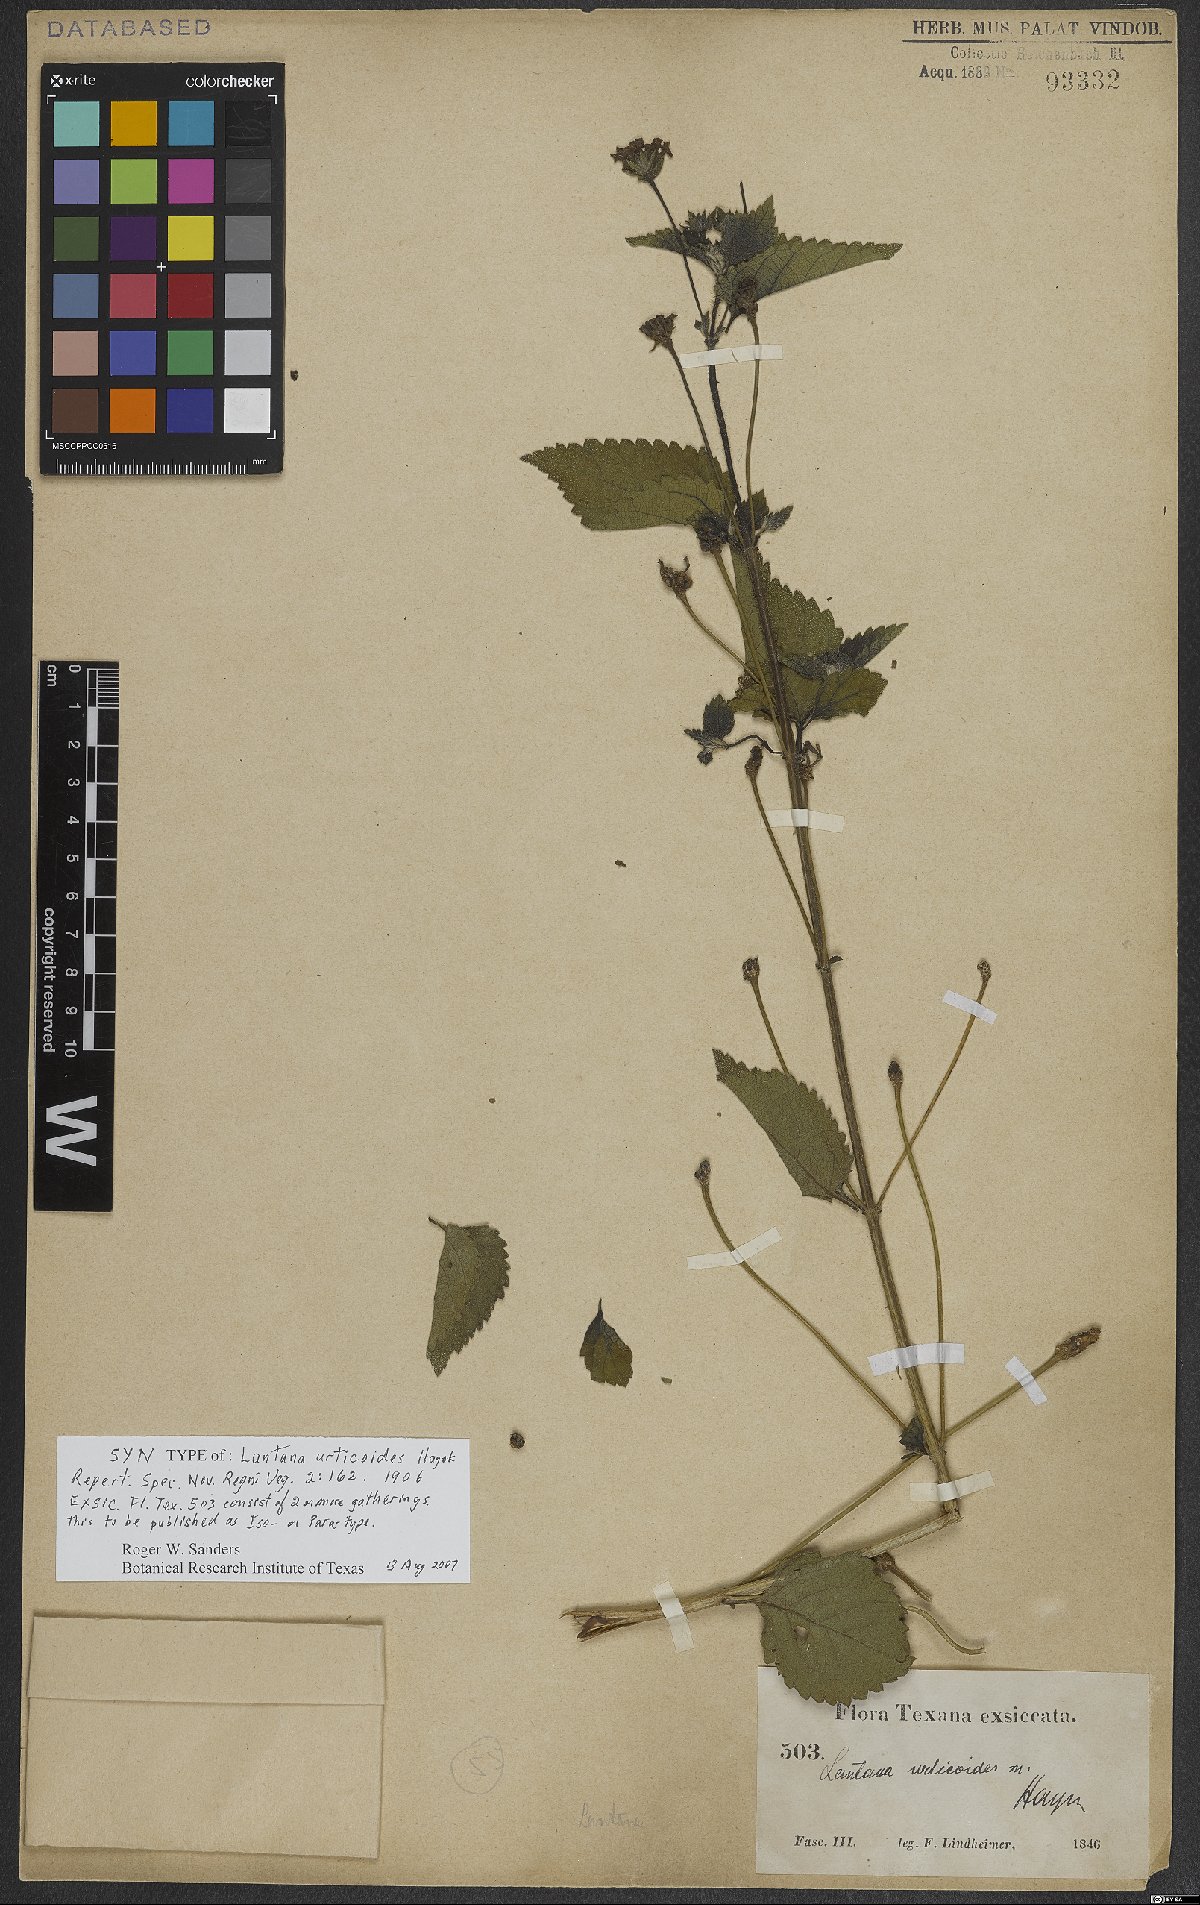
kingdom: Plantae
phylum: Tracheophyta
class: Magnoliopsida
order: Lamiales
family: Verbenaceae
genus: Lantana
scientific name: Lantana urticoides
